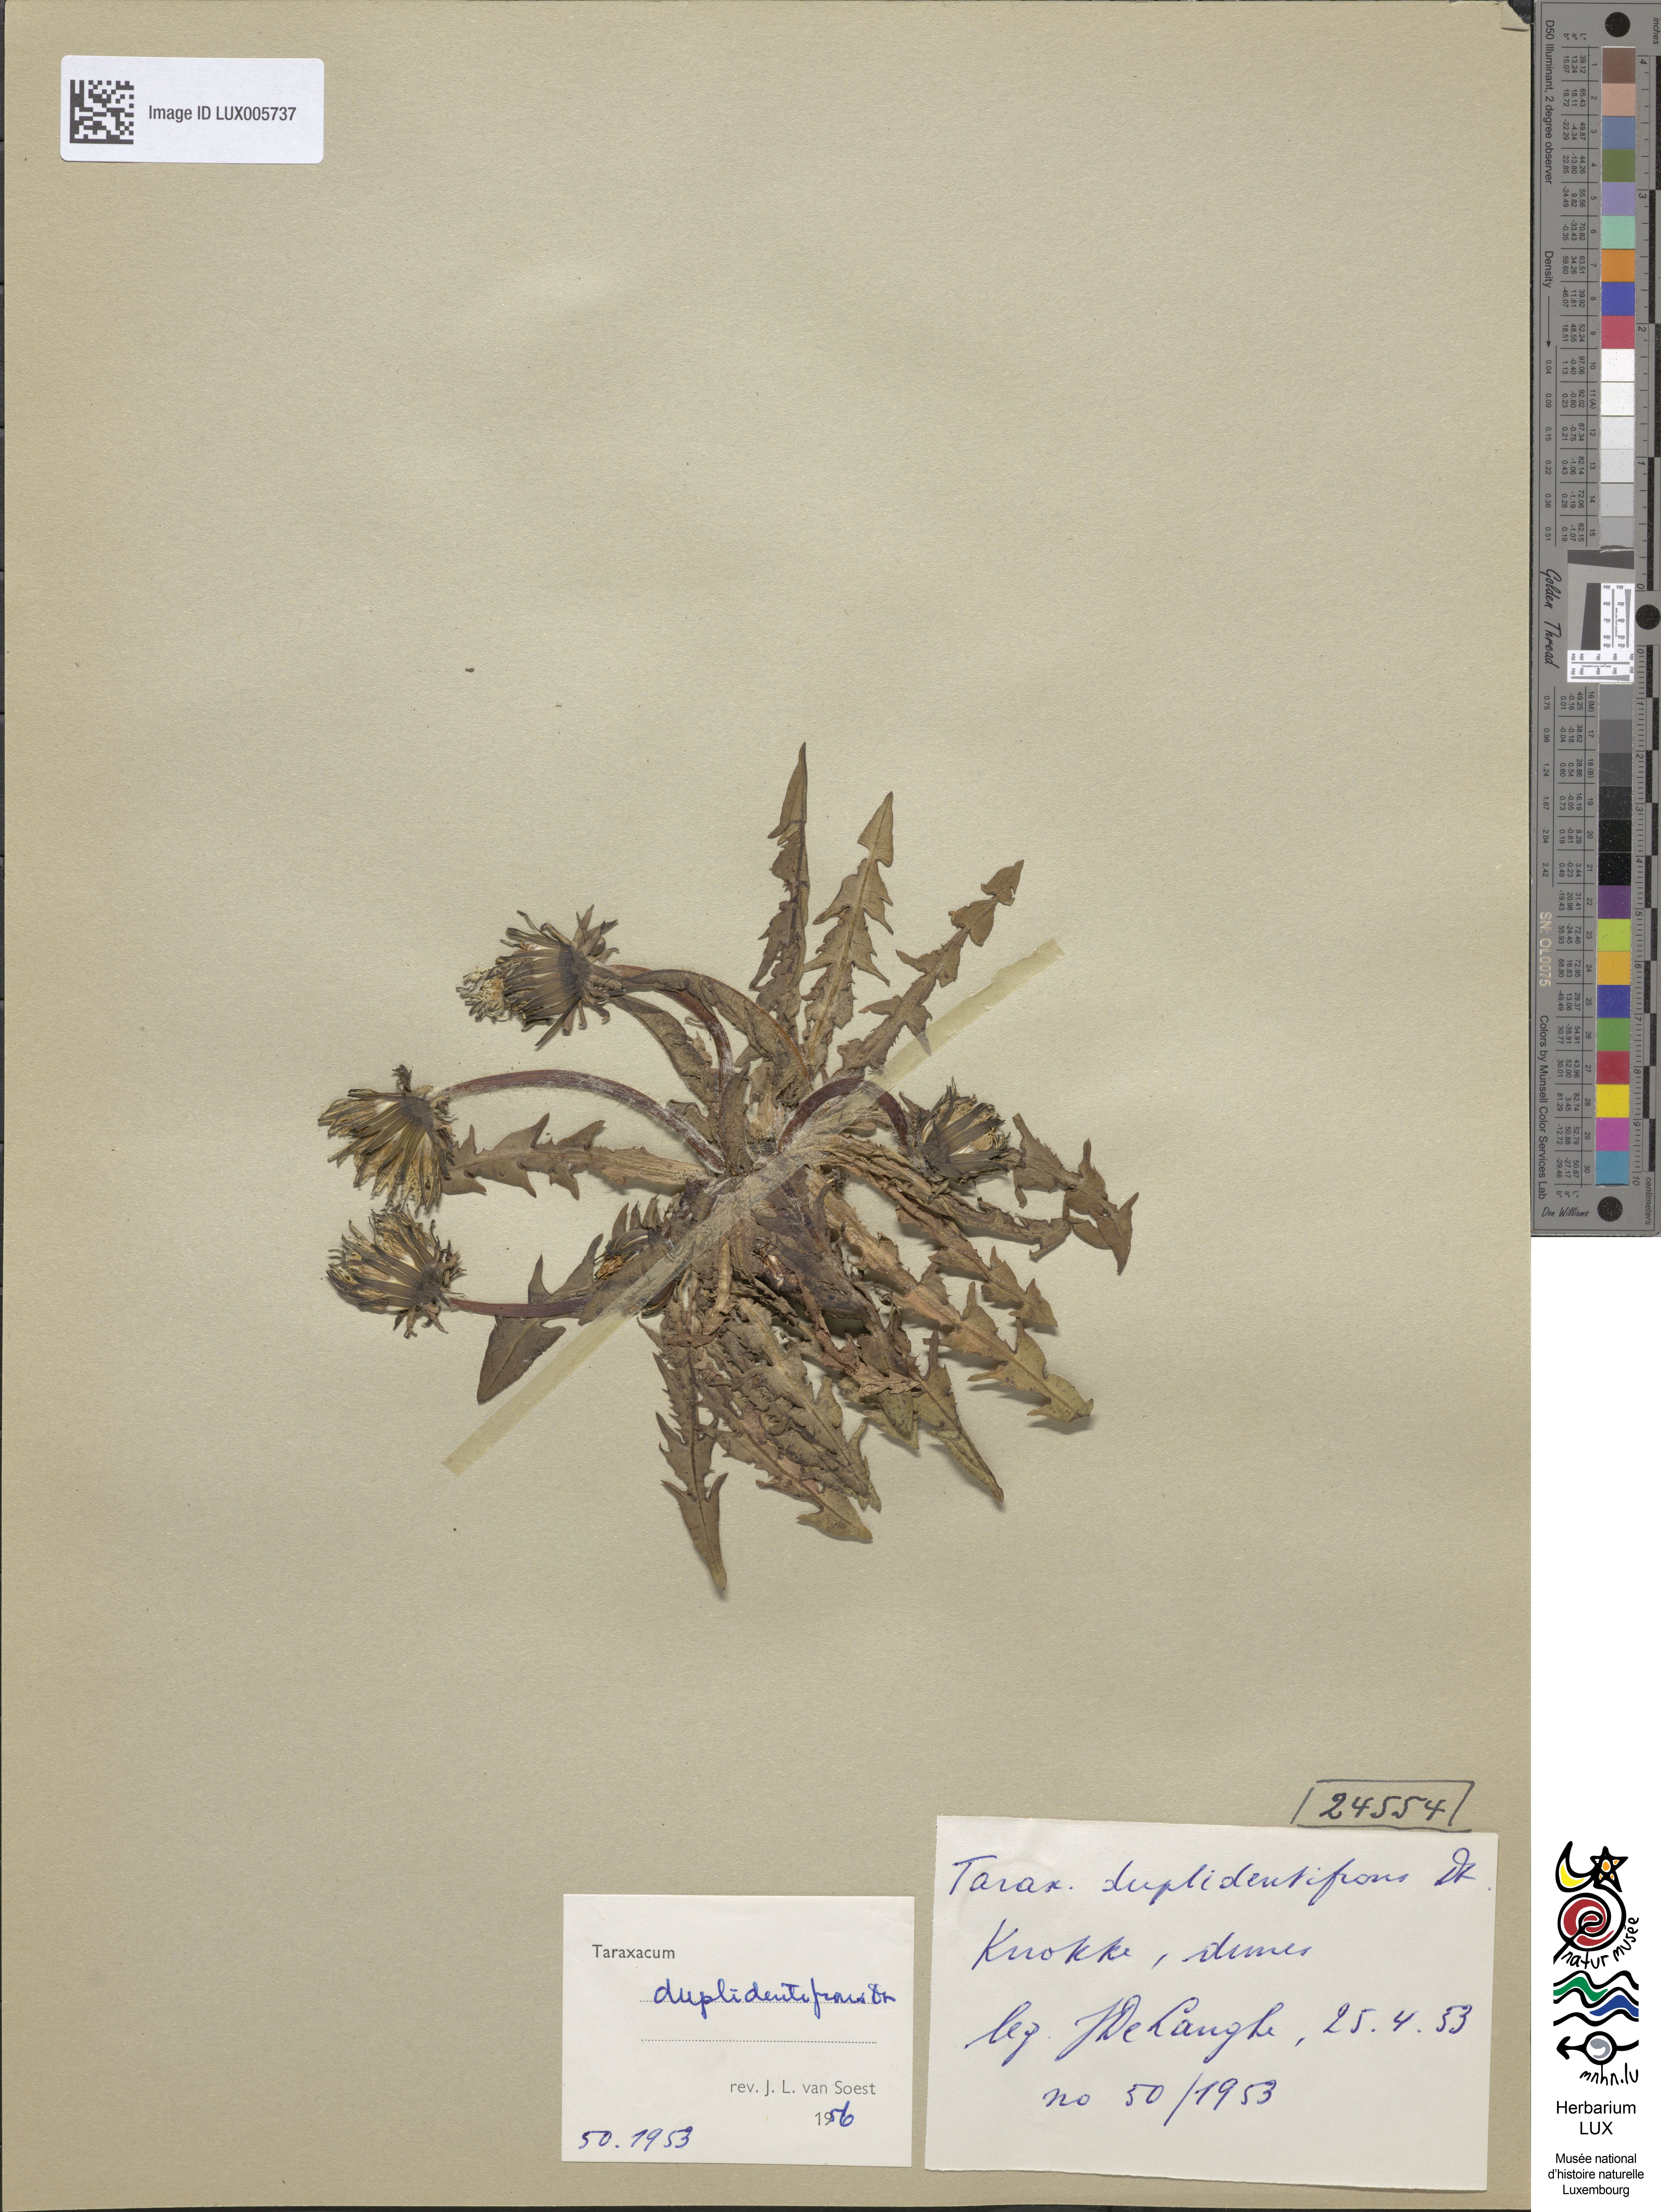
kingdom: Plantae
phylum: Tracheophyta
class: Magnoliopsida
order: Asterales
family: Asteraceae
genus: Taraxacum
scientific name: Taraxacum duplidentifrons
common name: Double-toothed dandelion
